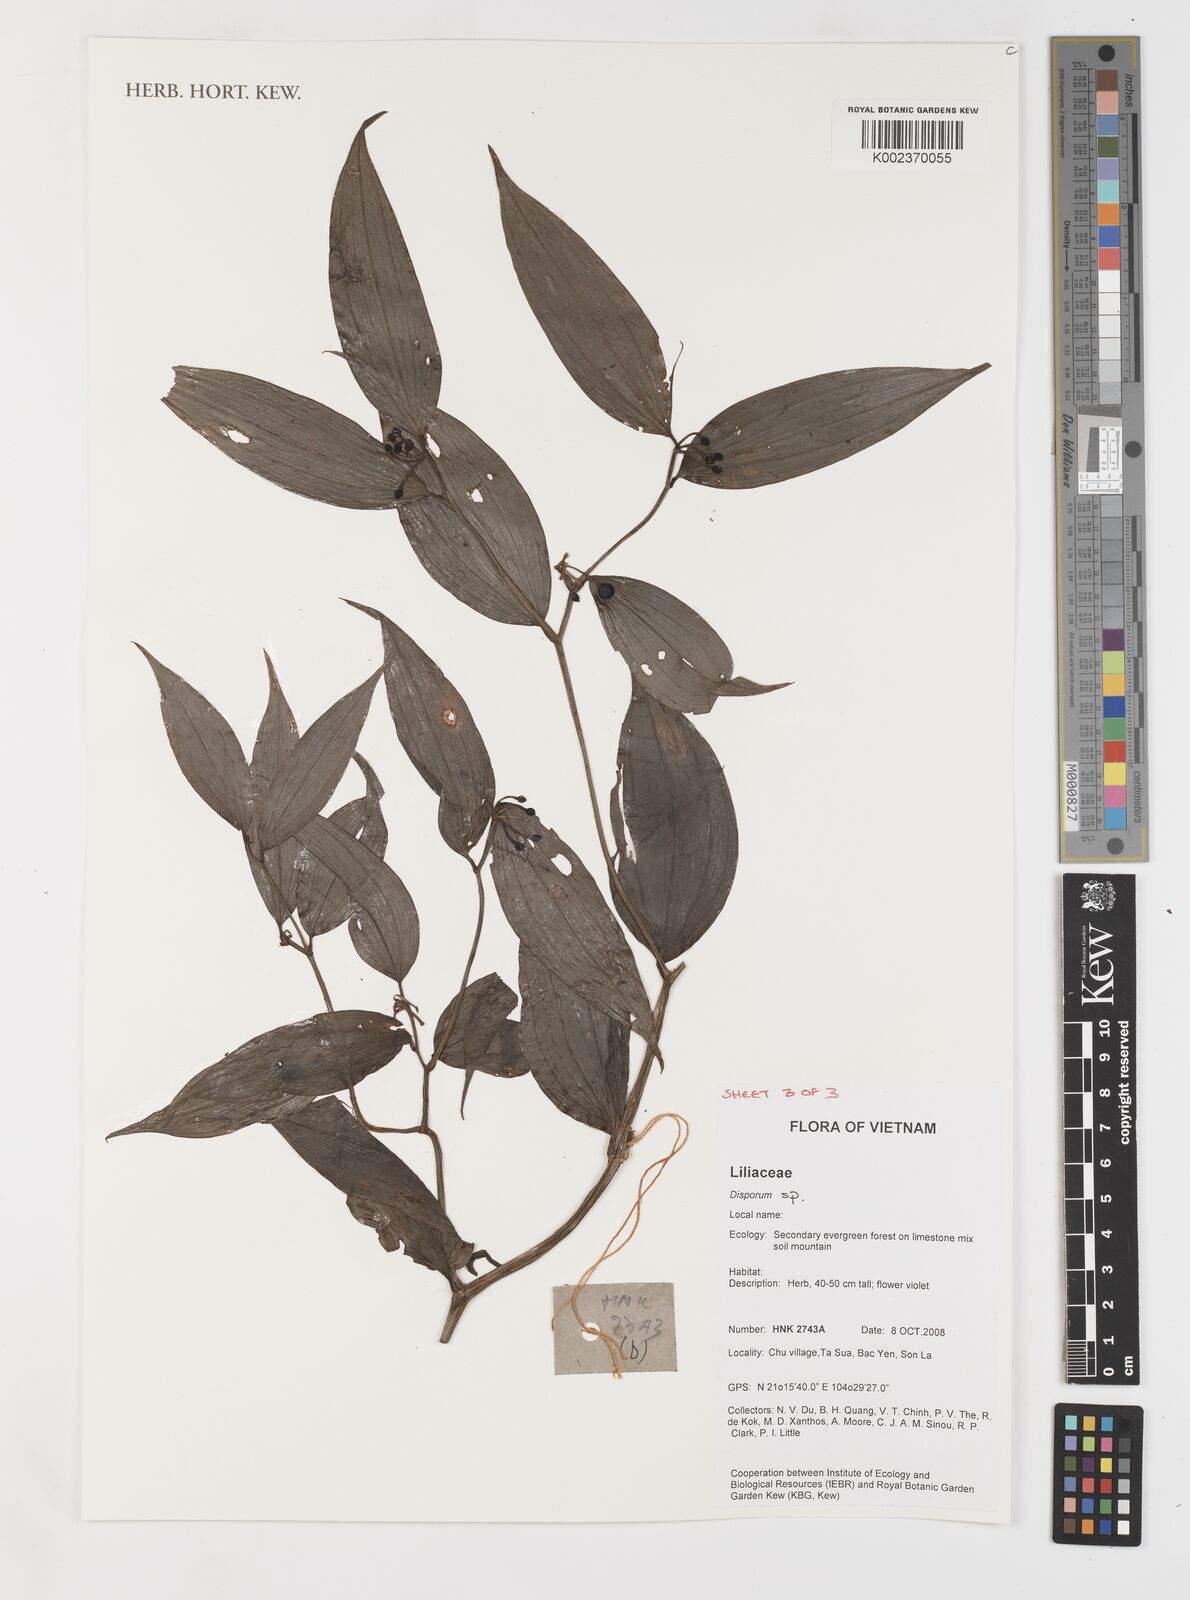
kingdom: Plantae
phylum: Tracheophyta
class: Liliopsida
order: Liliales
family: Colchicaceae
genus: Disporum
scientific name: Disporum
